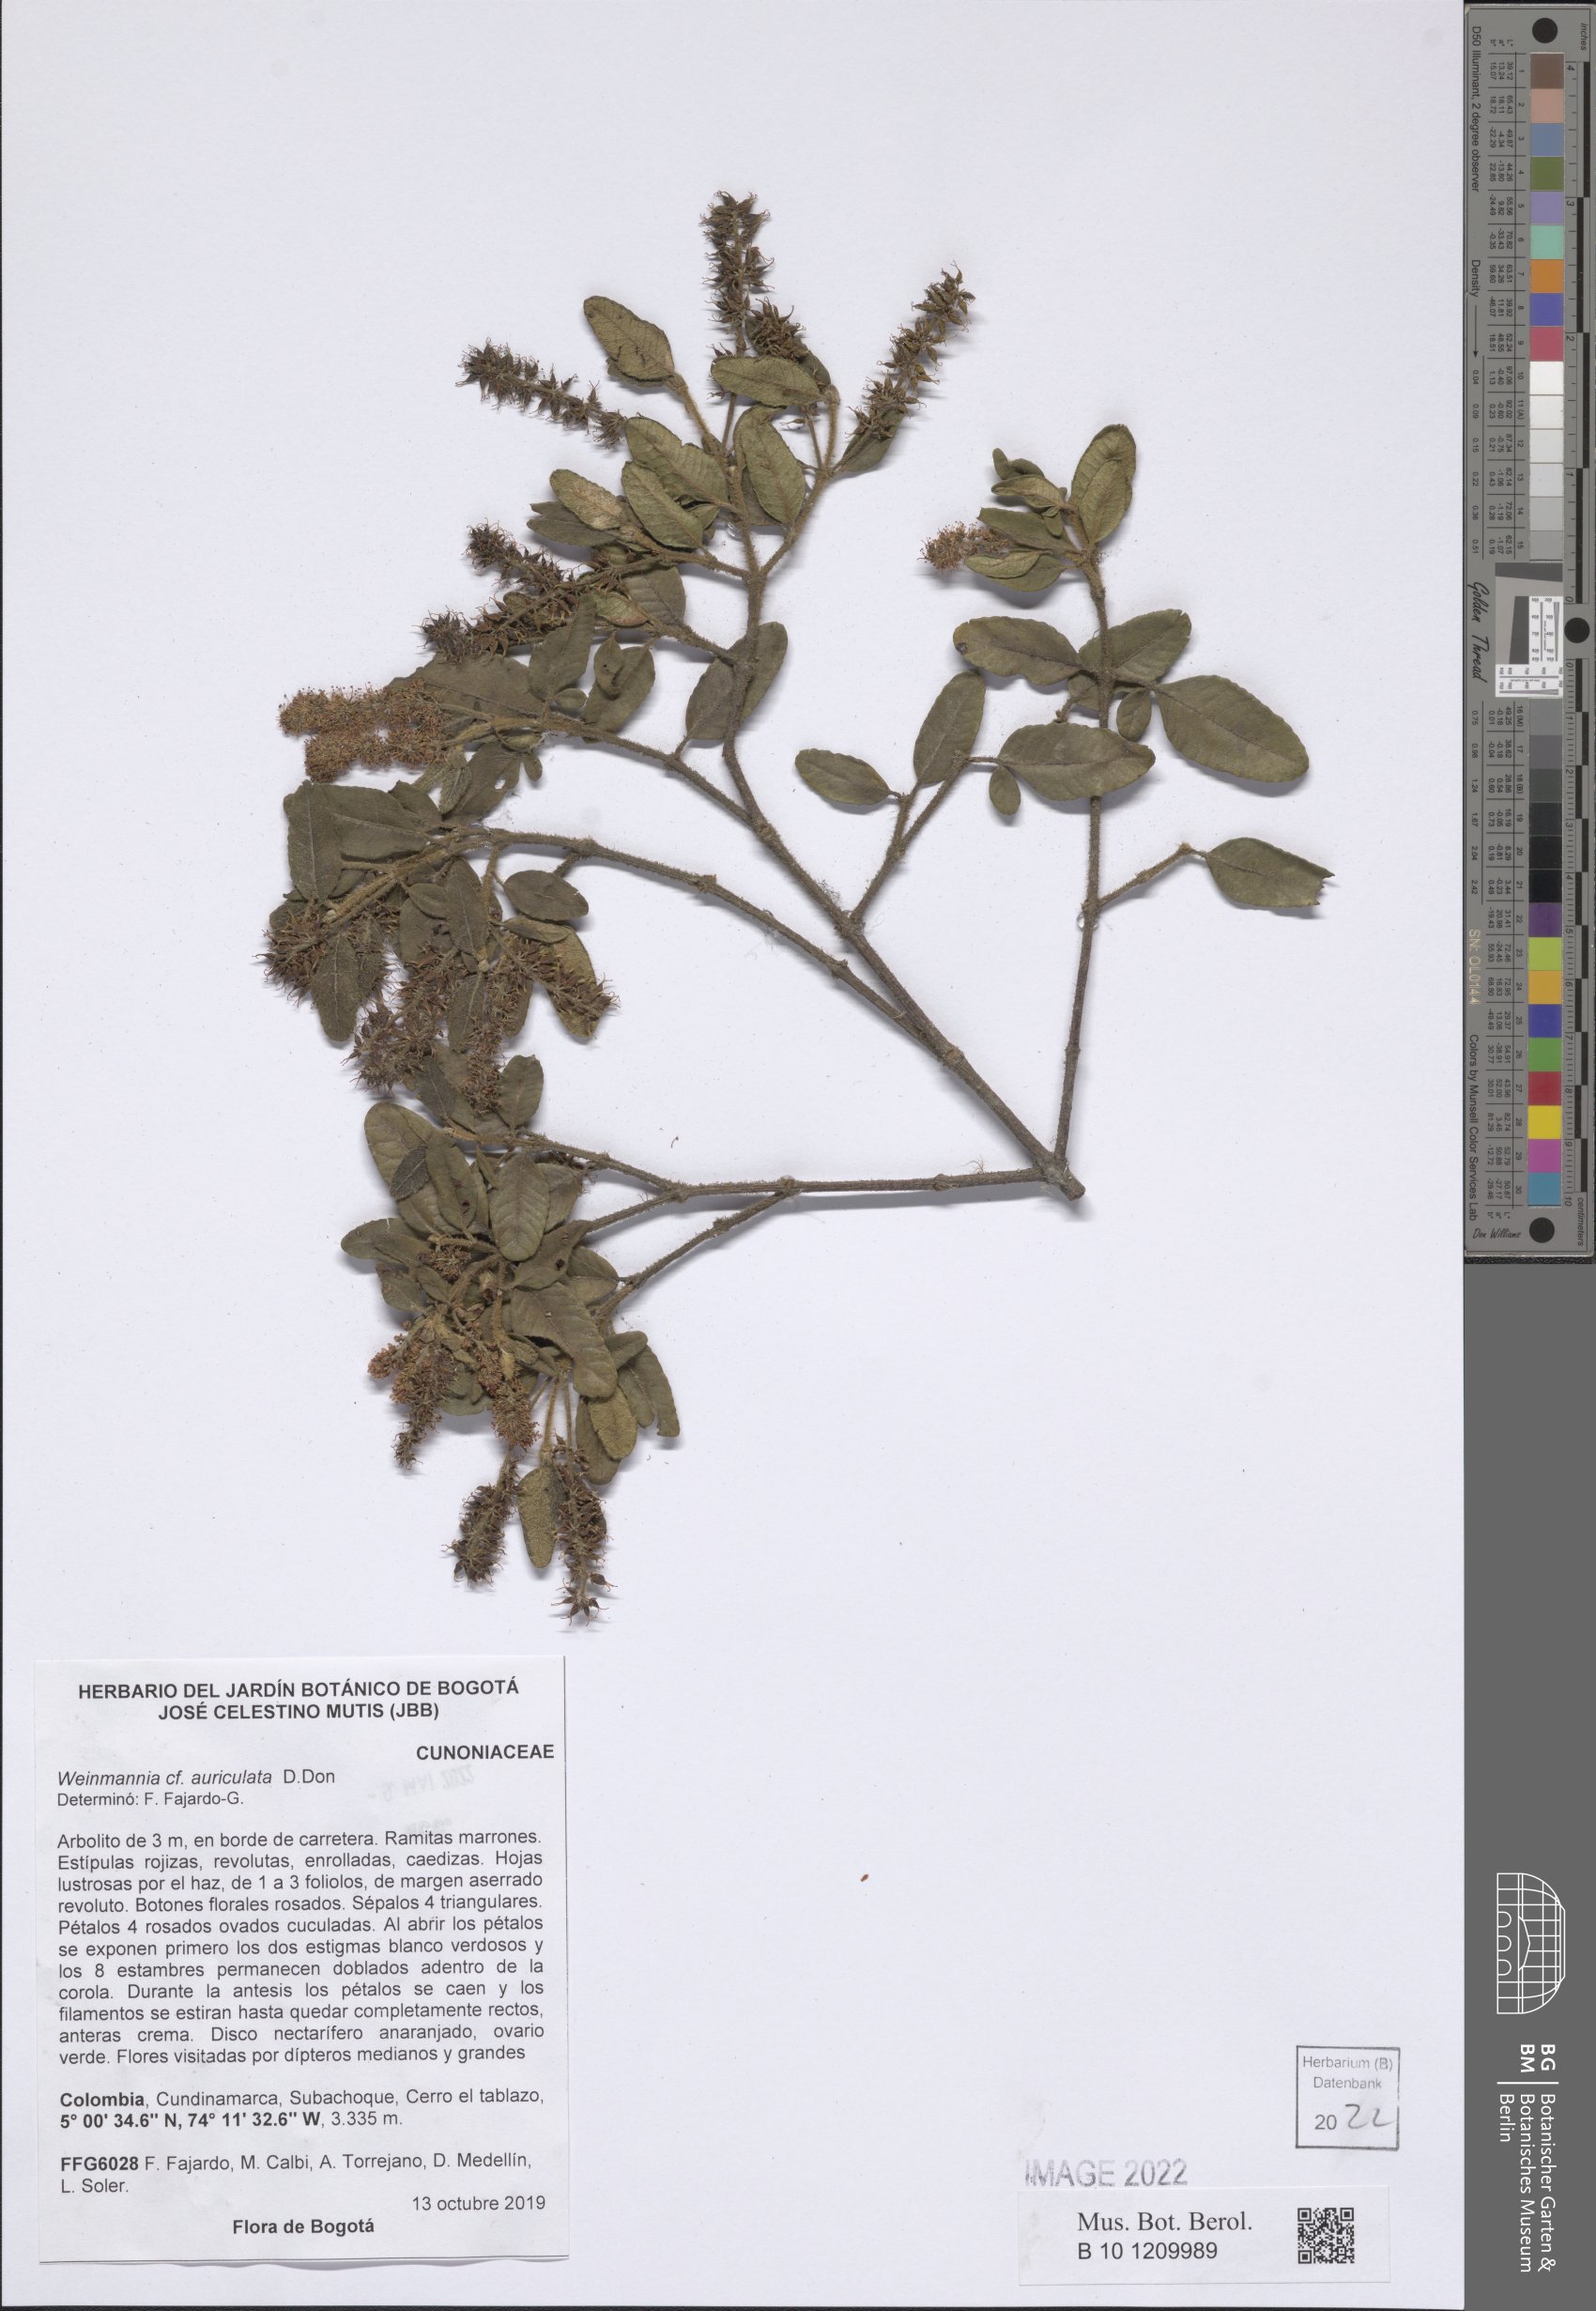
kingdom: Plantae
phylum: Tracheophyta
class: Magnoliopsida
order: Oxalidales
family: Cunoniaceae
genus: Weinmannia
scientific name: Weinmannia auriculata
